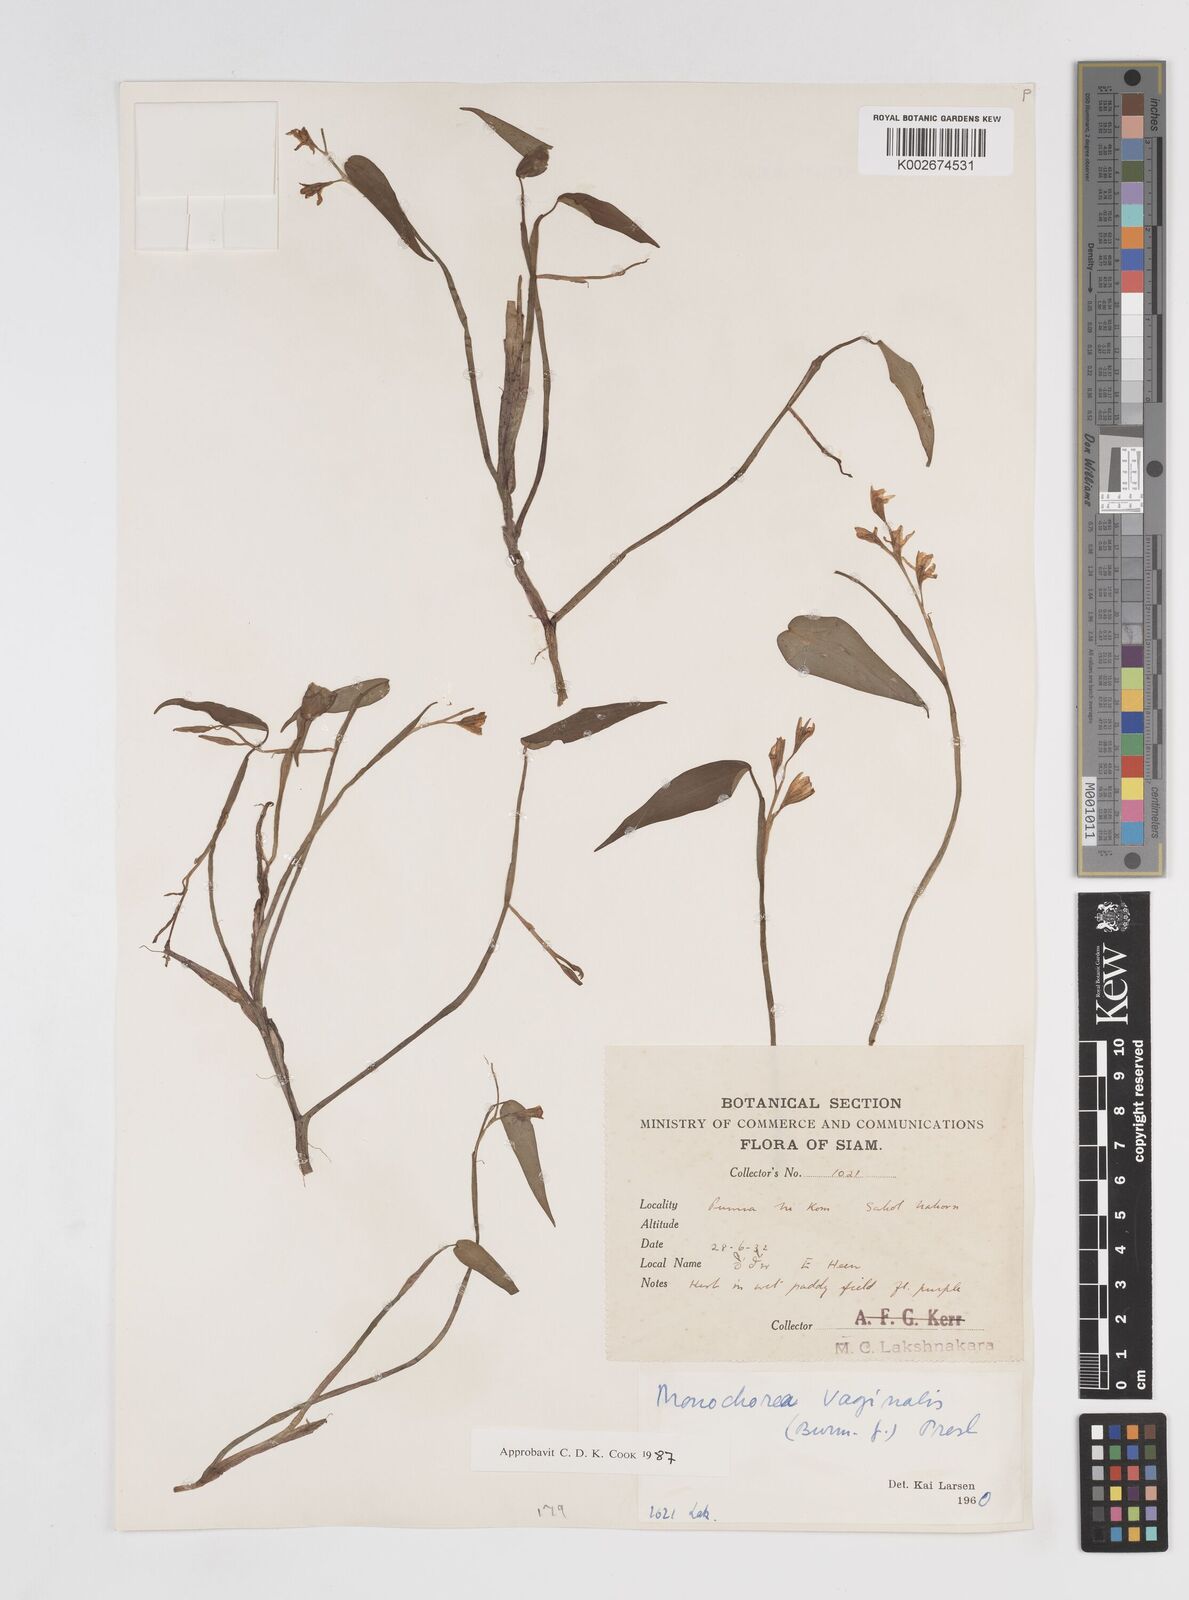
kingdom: Plantae
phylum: Tracheophyta
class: Liliopsida
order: Commelinales
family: Pontederiaceae
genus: Pontederia
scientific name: Pontederia vaginalis
